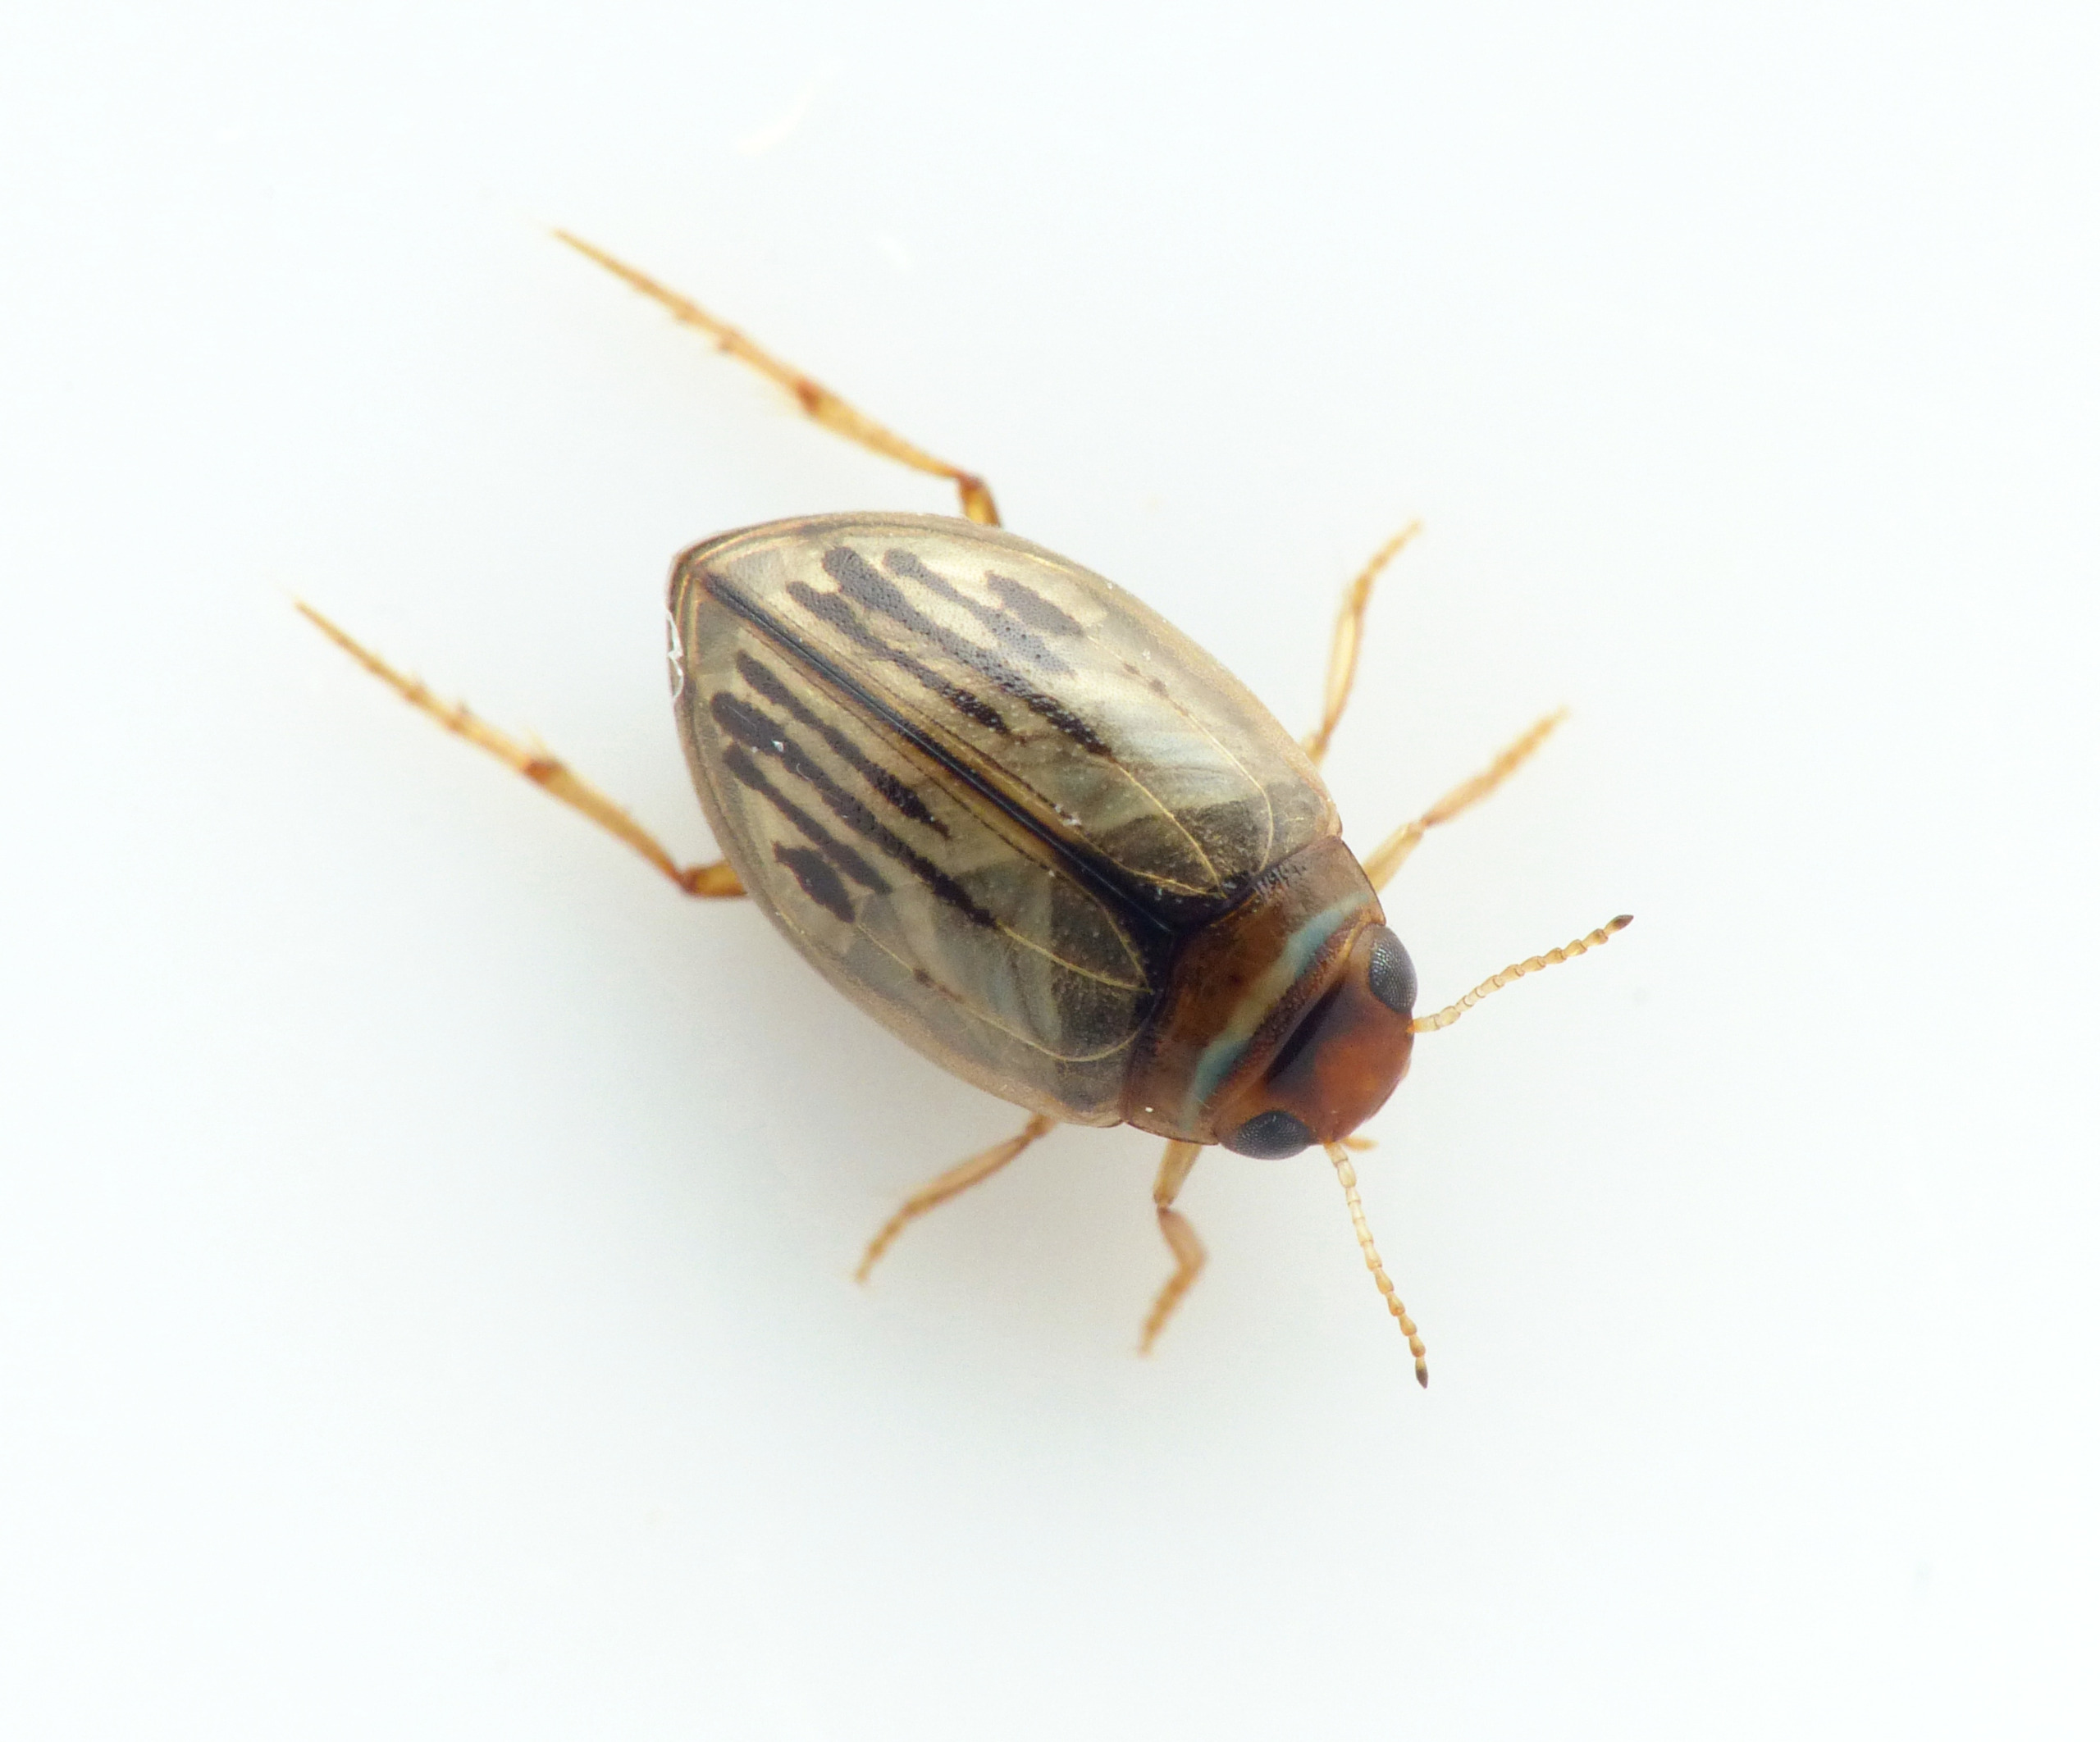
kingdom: Animalia
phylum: Arthropoda
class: Insecta
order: Coleoptera
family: Dytiscidae
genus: Hygrotus
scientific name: Hygrotus confluens
